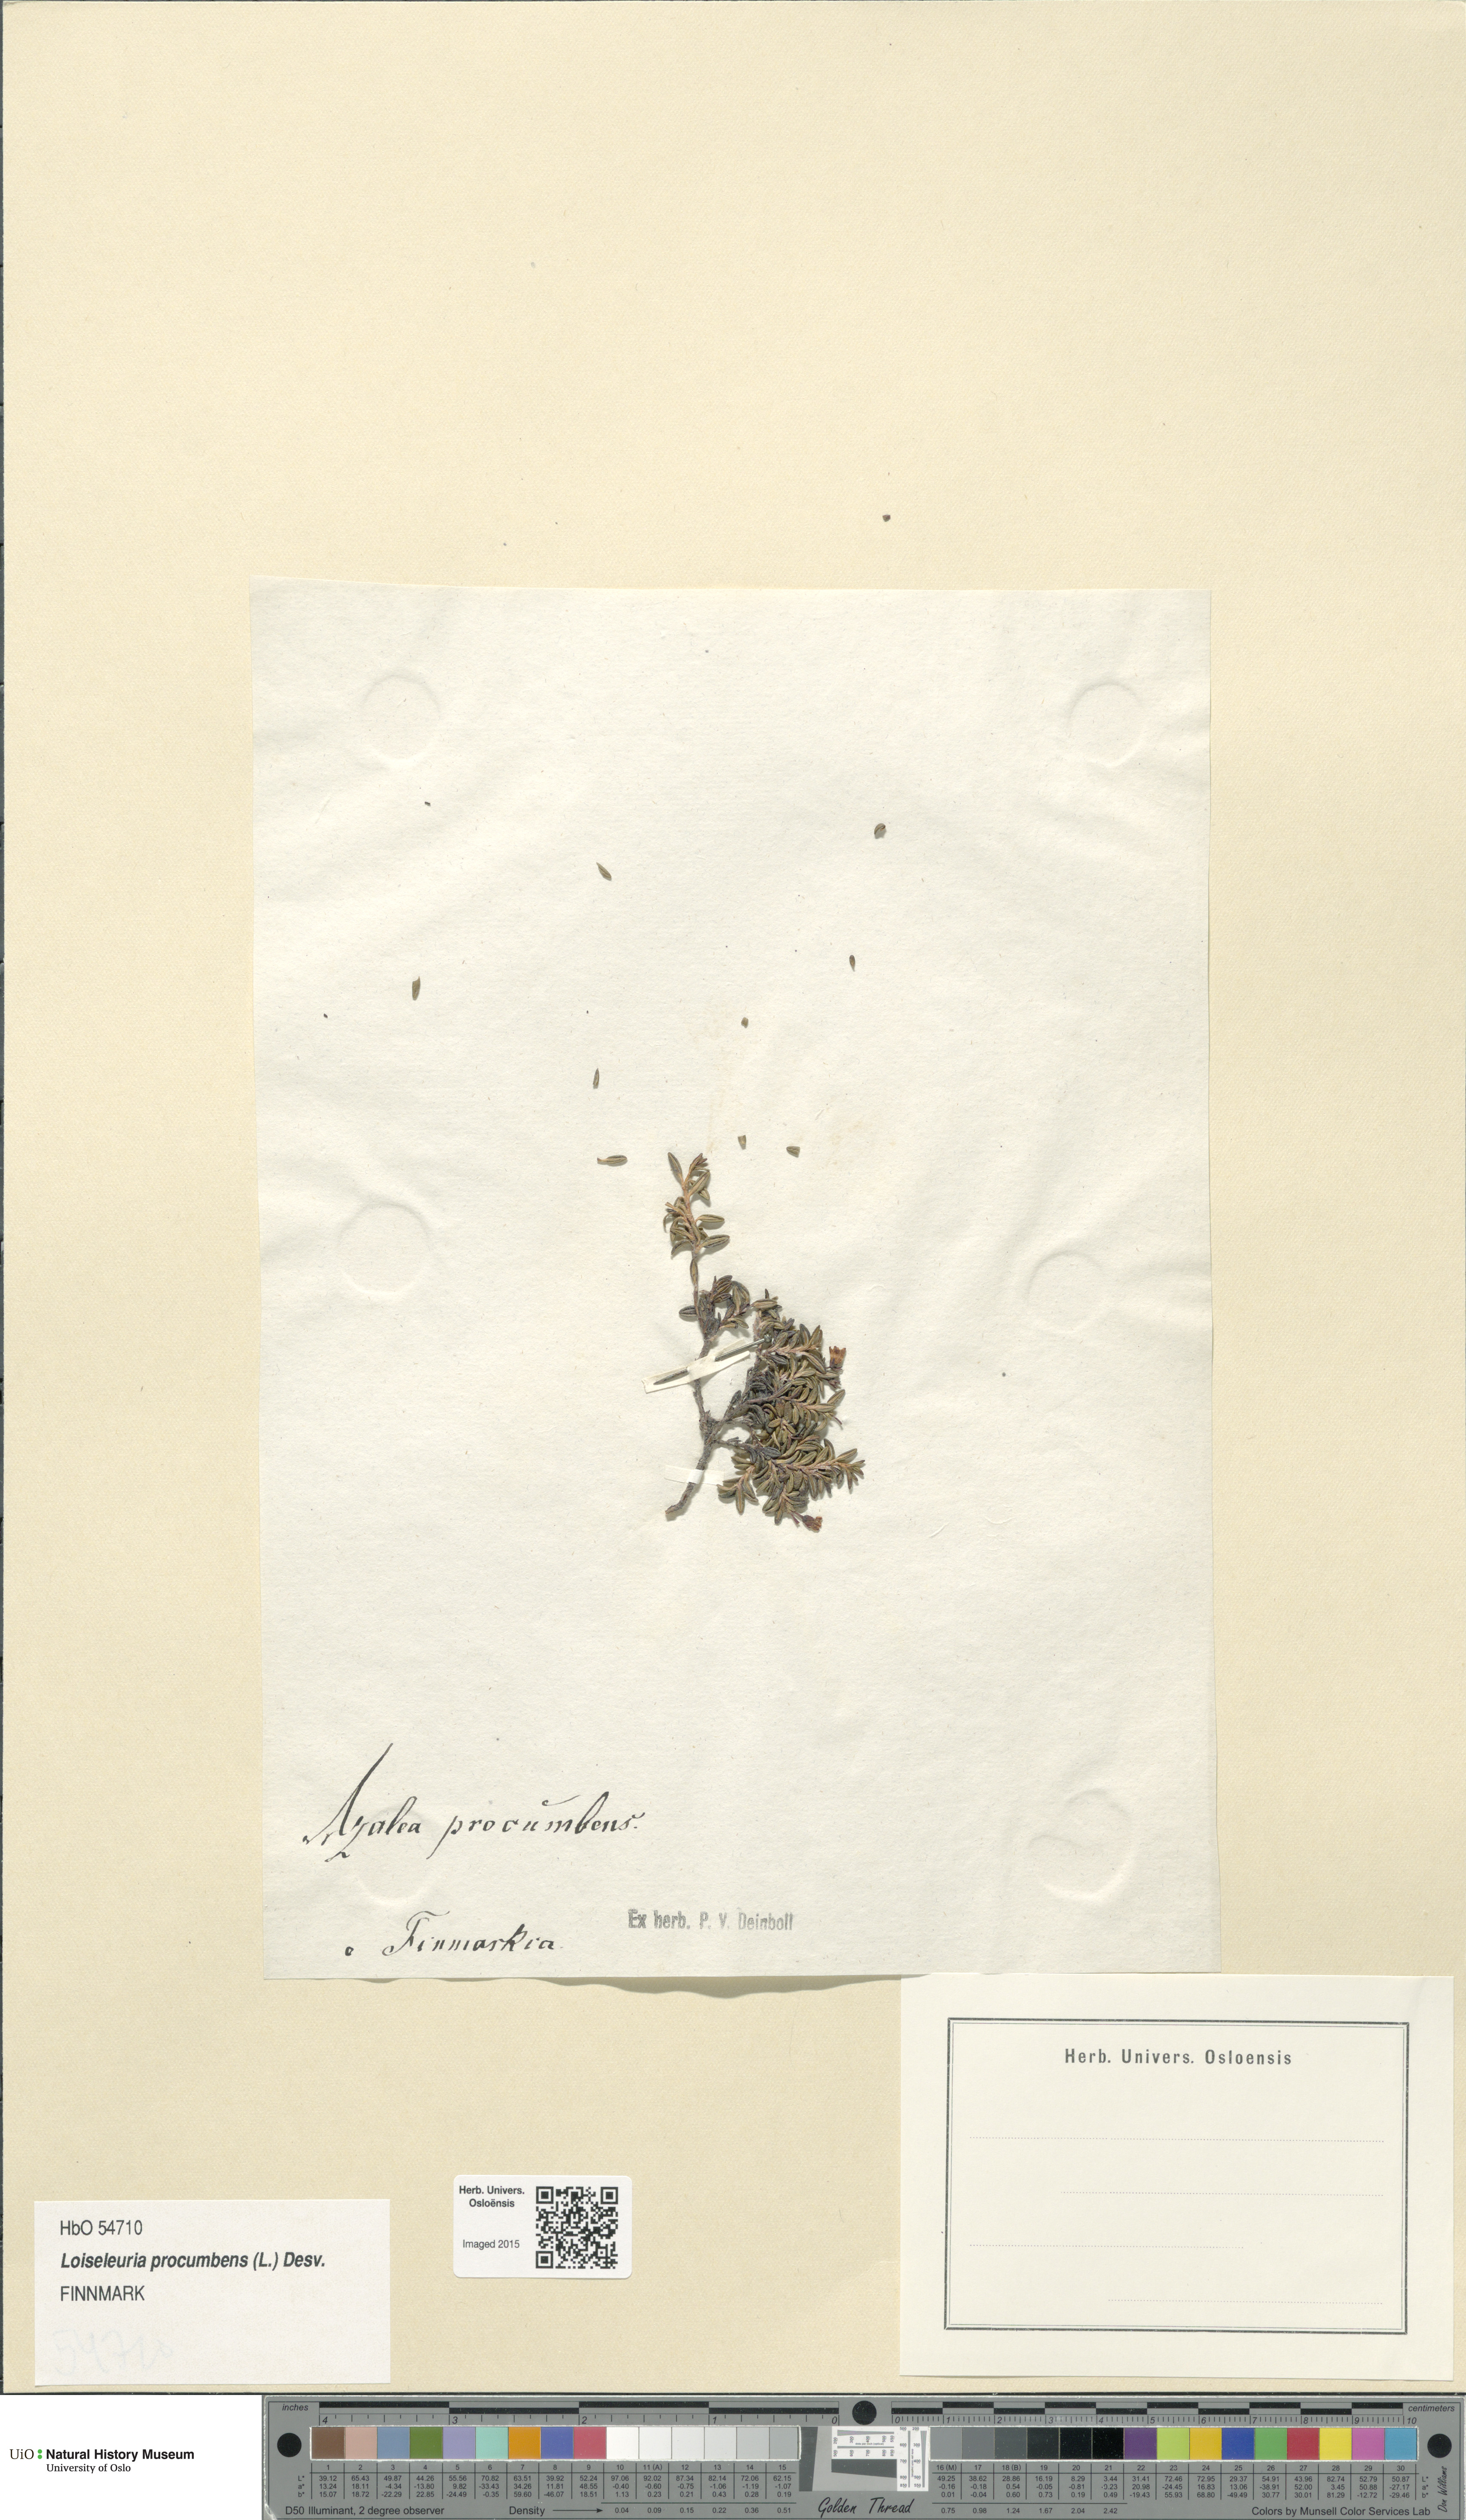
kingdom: Plantae
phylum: Tracheophyta
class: Magnoliopsida
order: Ericales
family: Ericaceae
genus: Kalmia
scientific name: Kalmia procumbens
